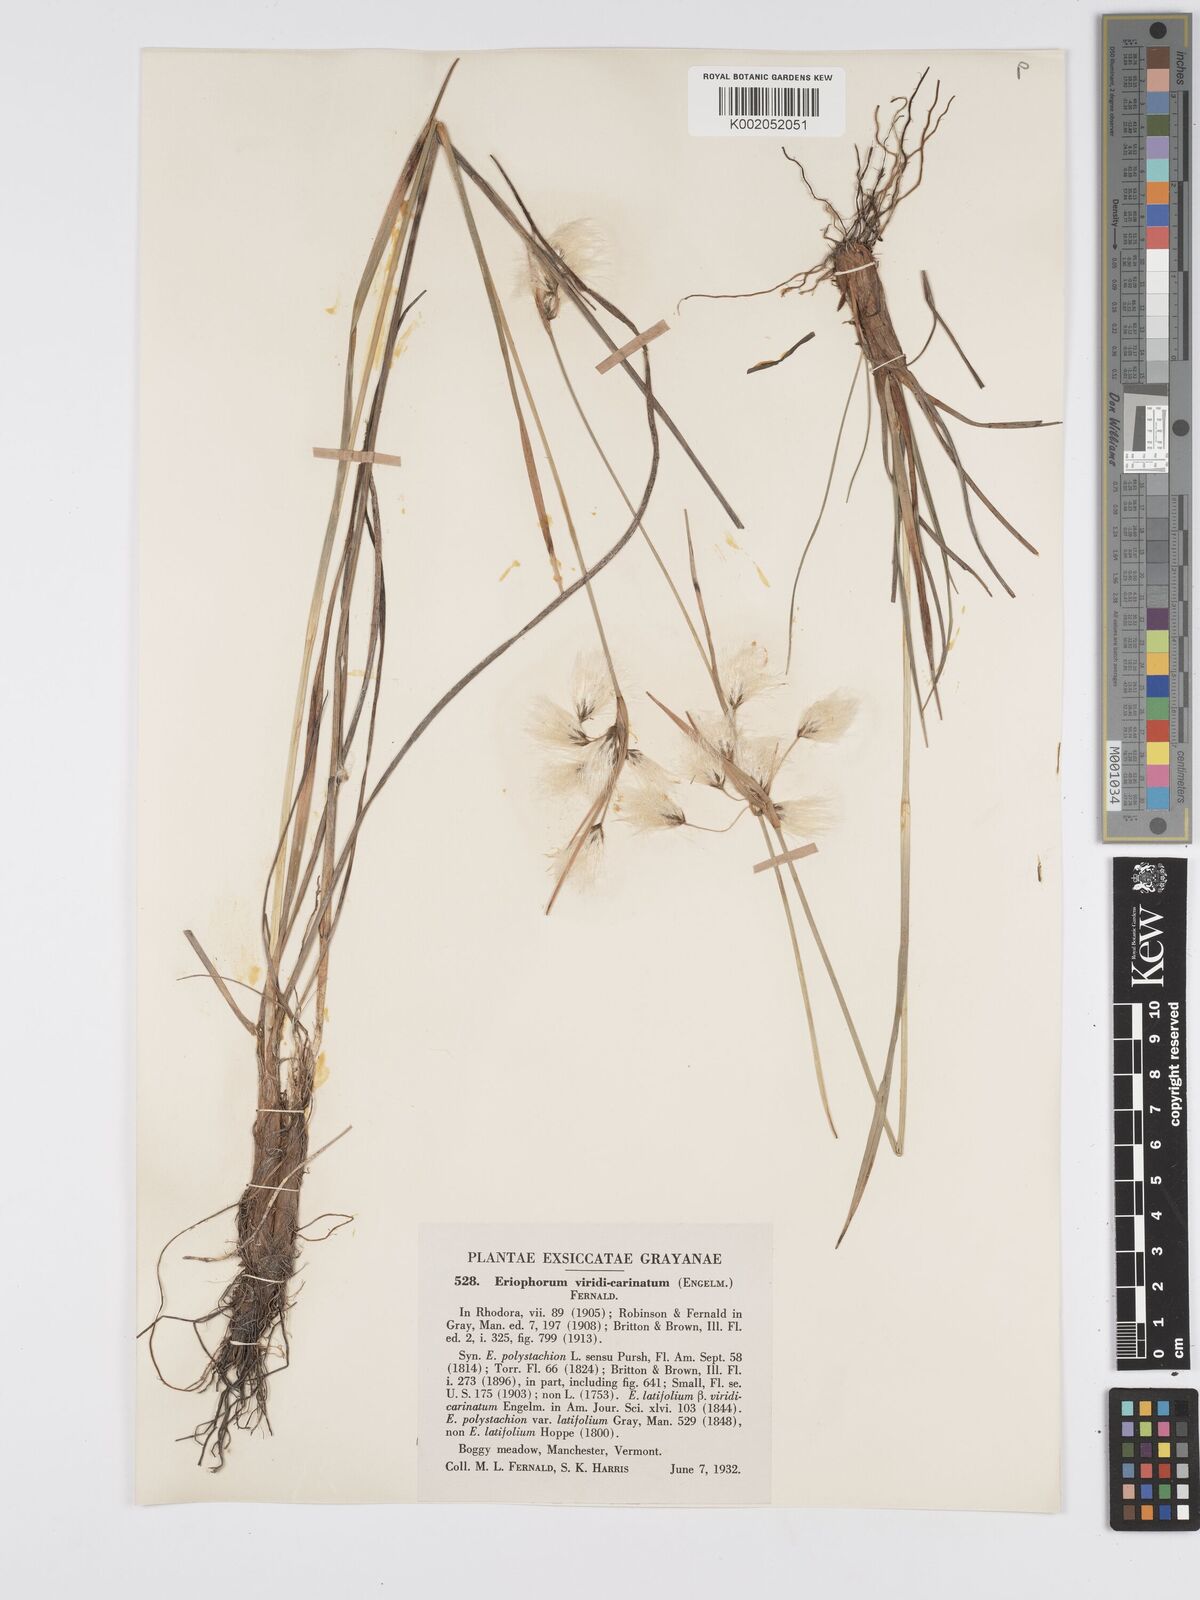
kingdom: Plantae
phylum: Tracheophyta
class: Liliopsida
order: Poales
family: Cyperaceae
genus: Eriophorum
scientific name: Eriophorum viridicarinatum
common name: Green-keeled cottongrass
